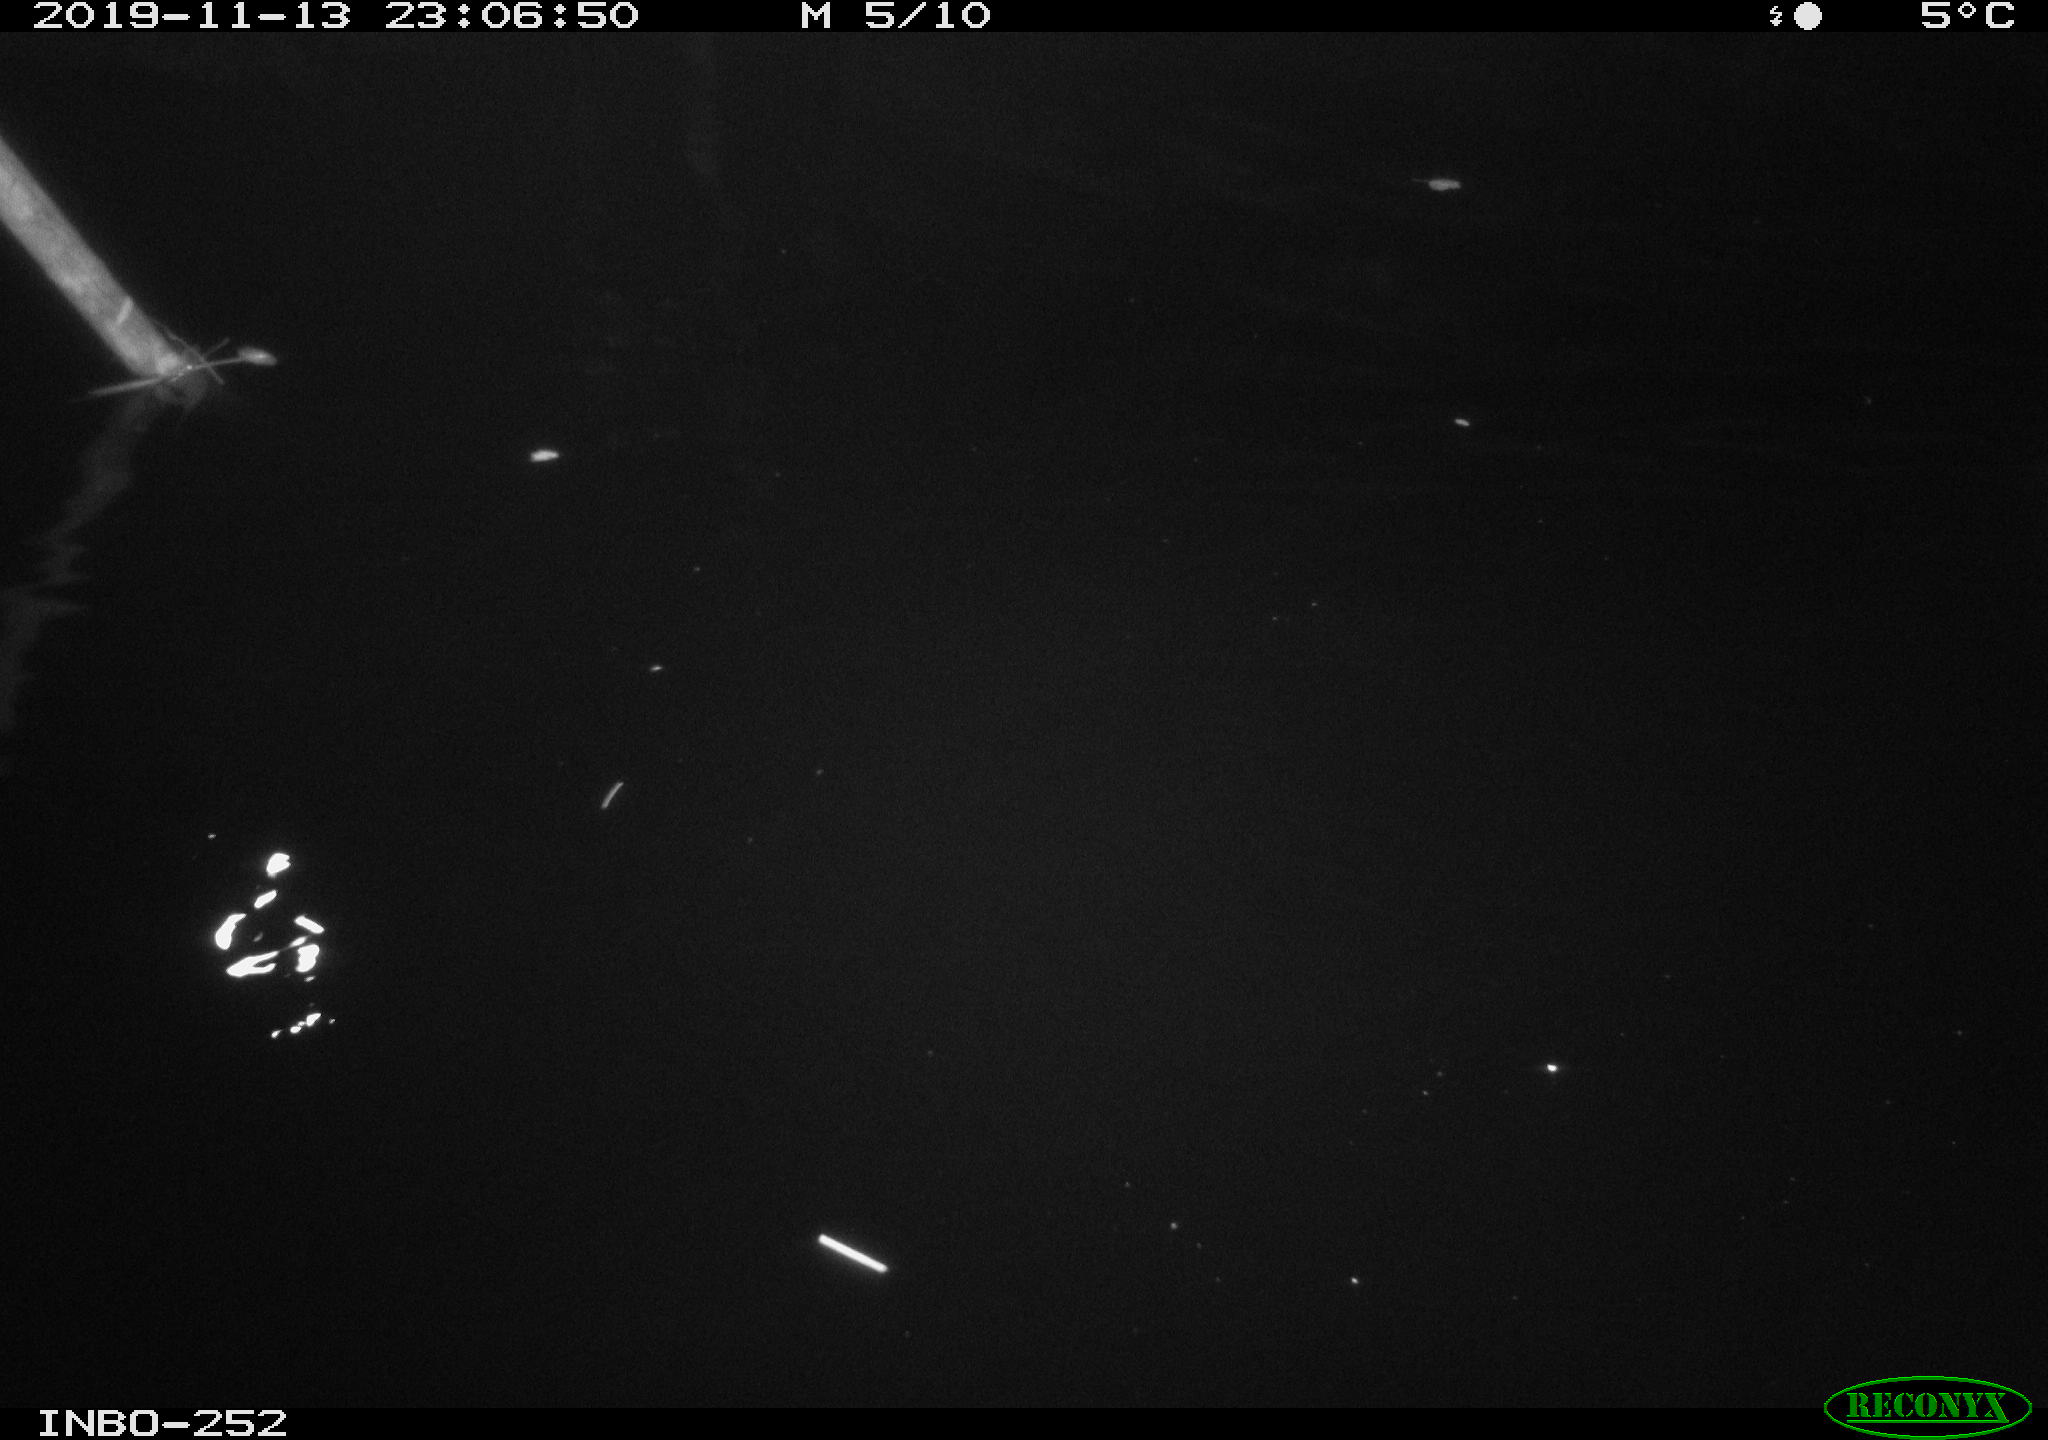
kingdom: Animalia
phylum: Chordata
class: Aves
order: Anseriformes
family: Anatidae
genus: Anas
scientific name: Anas platyrhynchos
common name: Mallard
